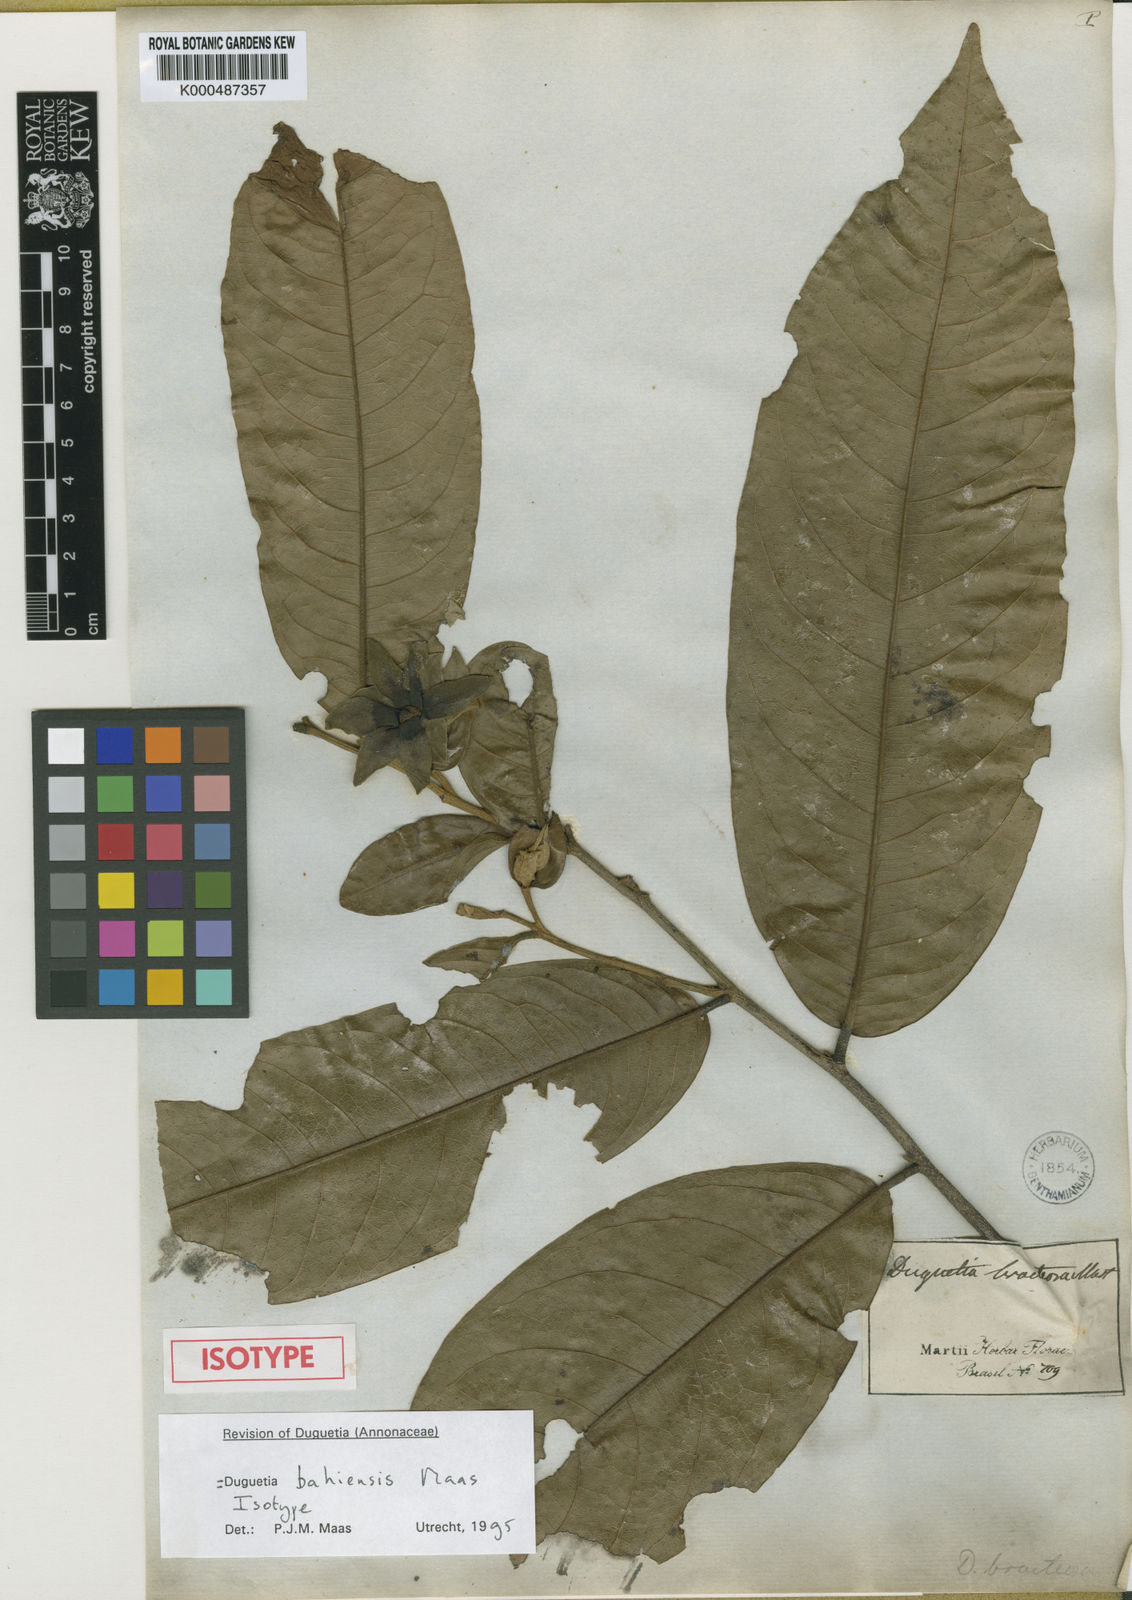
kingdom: Plantae
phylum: Tracheophyta
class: Magnoliopsida
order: Magnoliales
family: Annonaceae
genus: Duguetia
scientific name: Duguetia bahiensis
